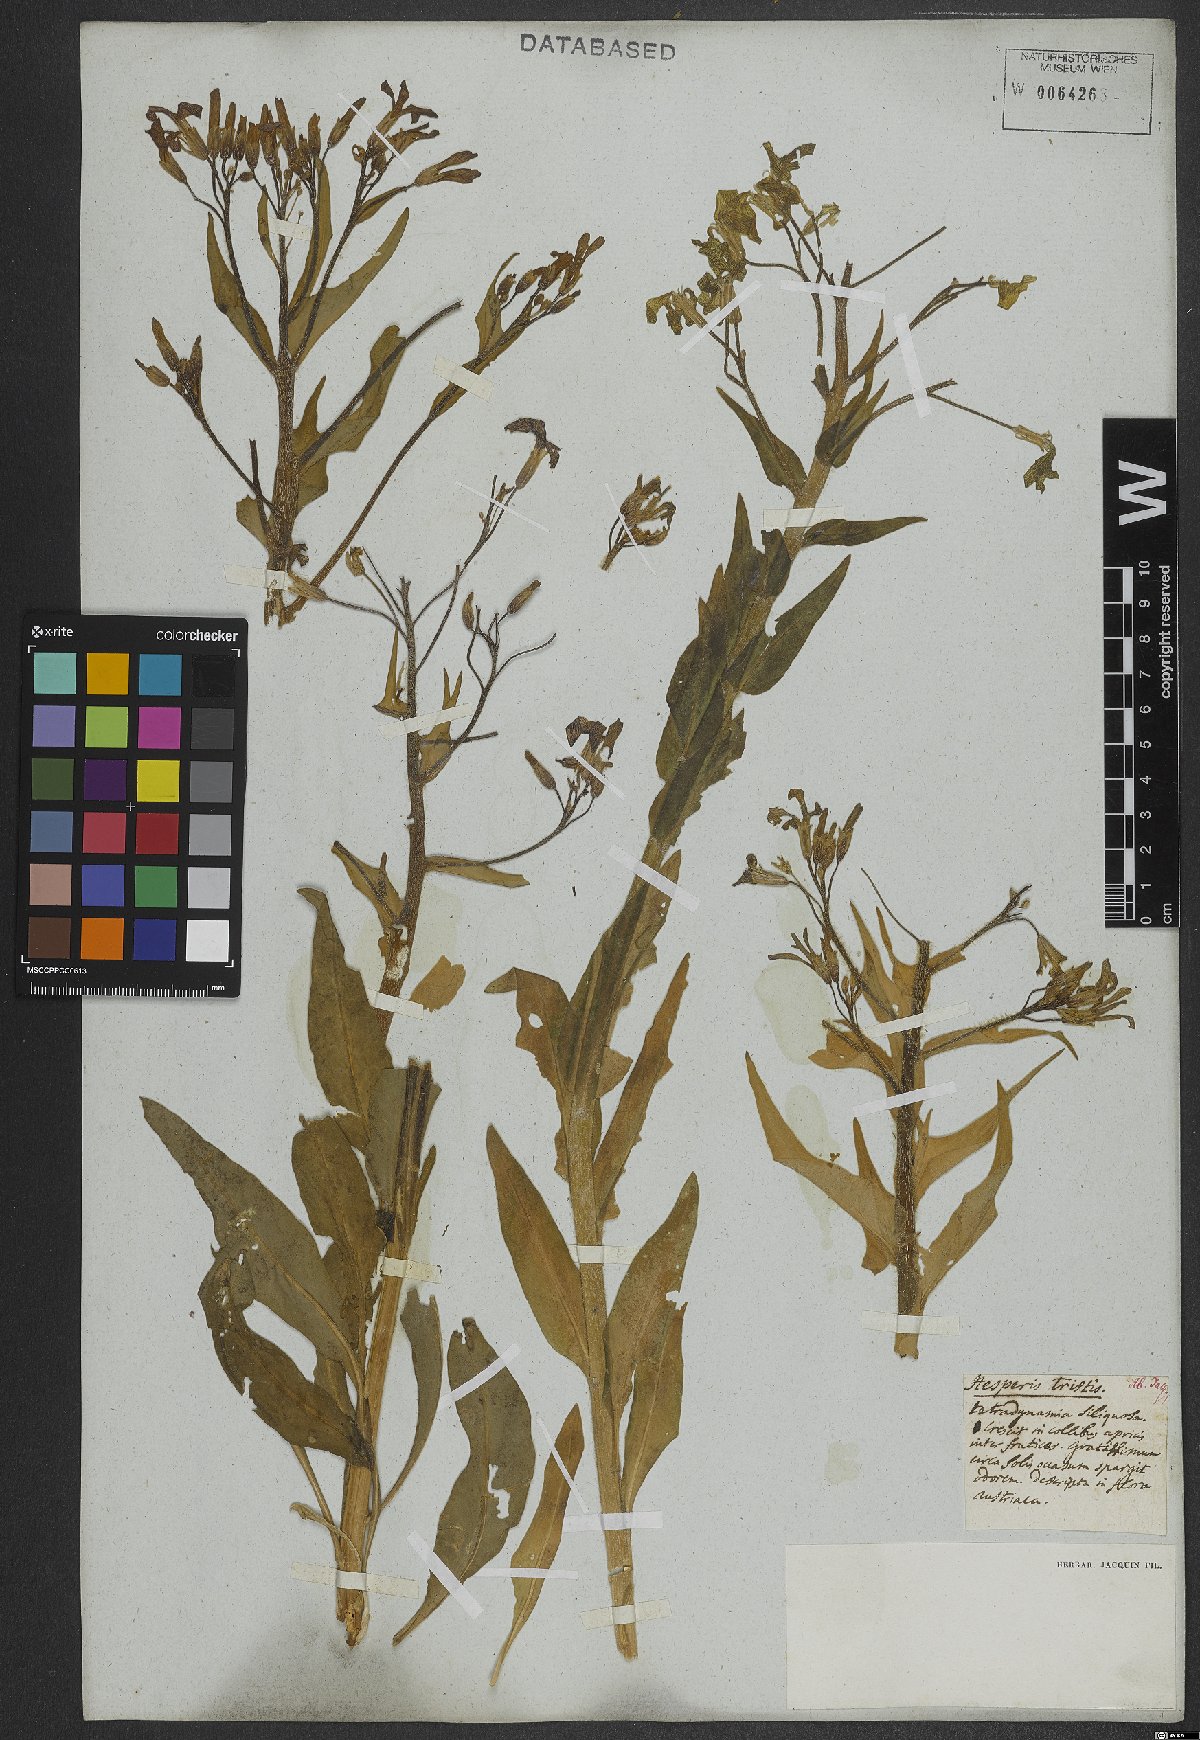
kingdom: Plantae
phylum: Tracheophyta
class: Magnoliopsida
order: Brassicales
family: Brassicaceae
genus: Hesperis
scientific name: Hesperis tristis
